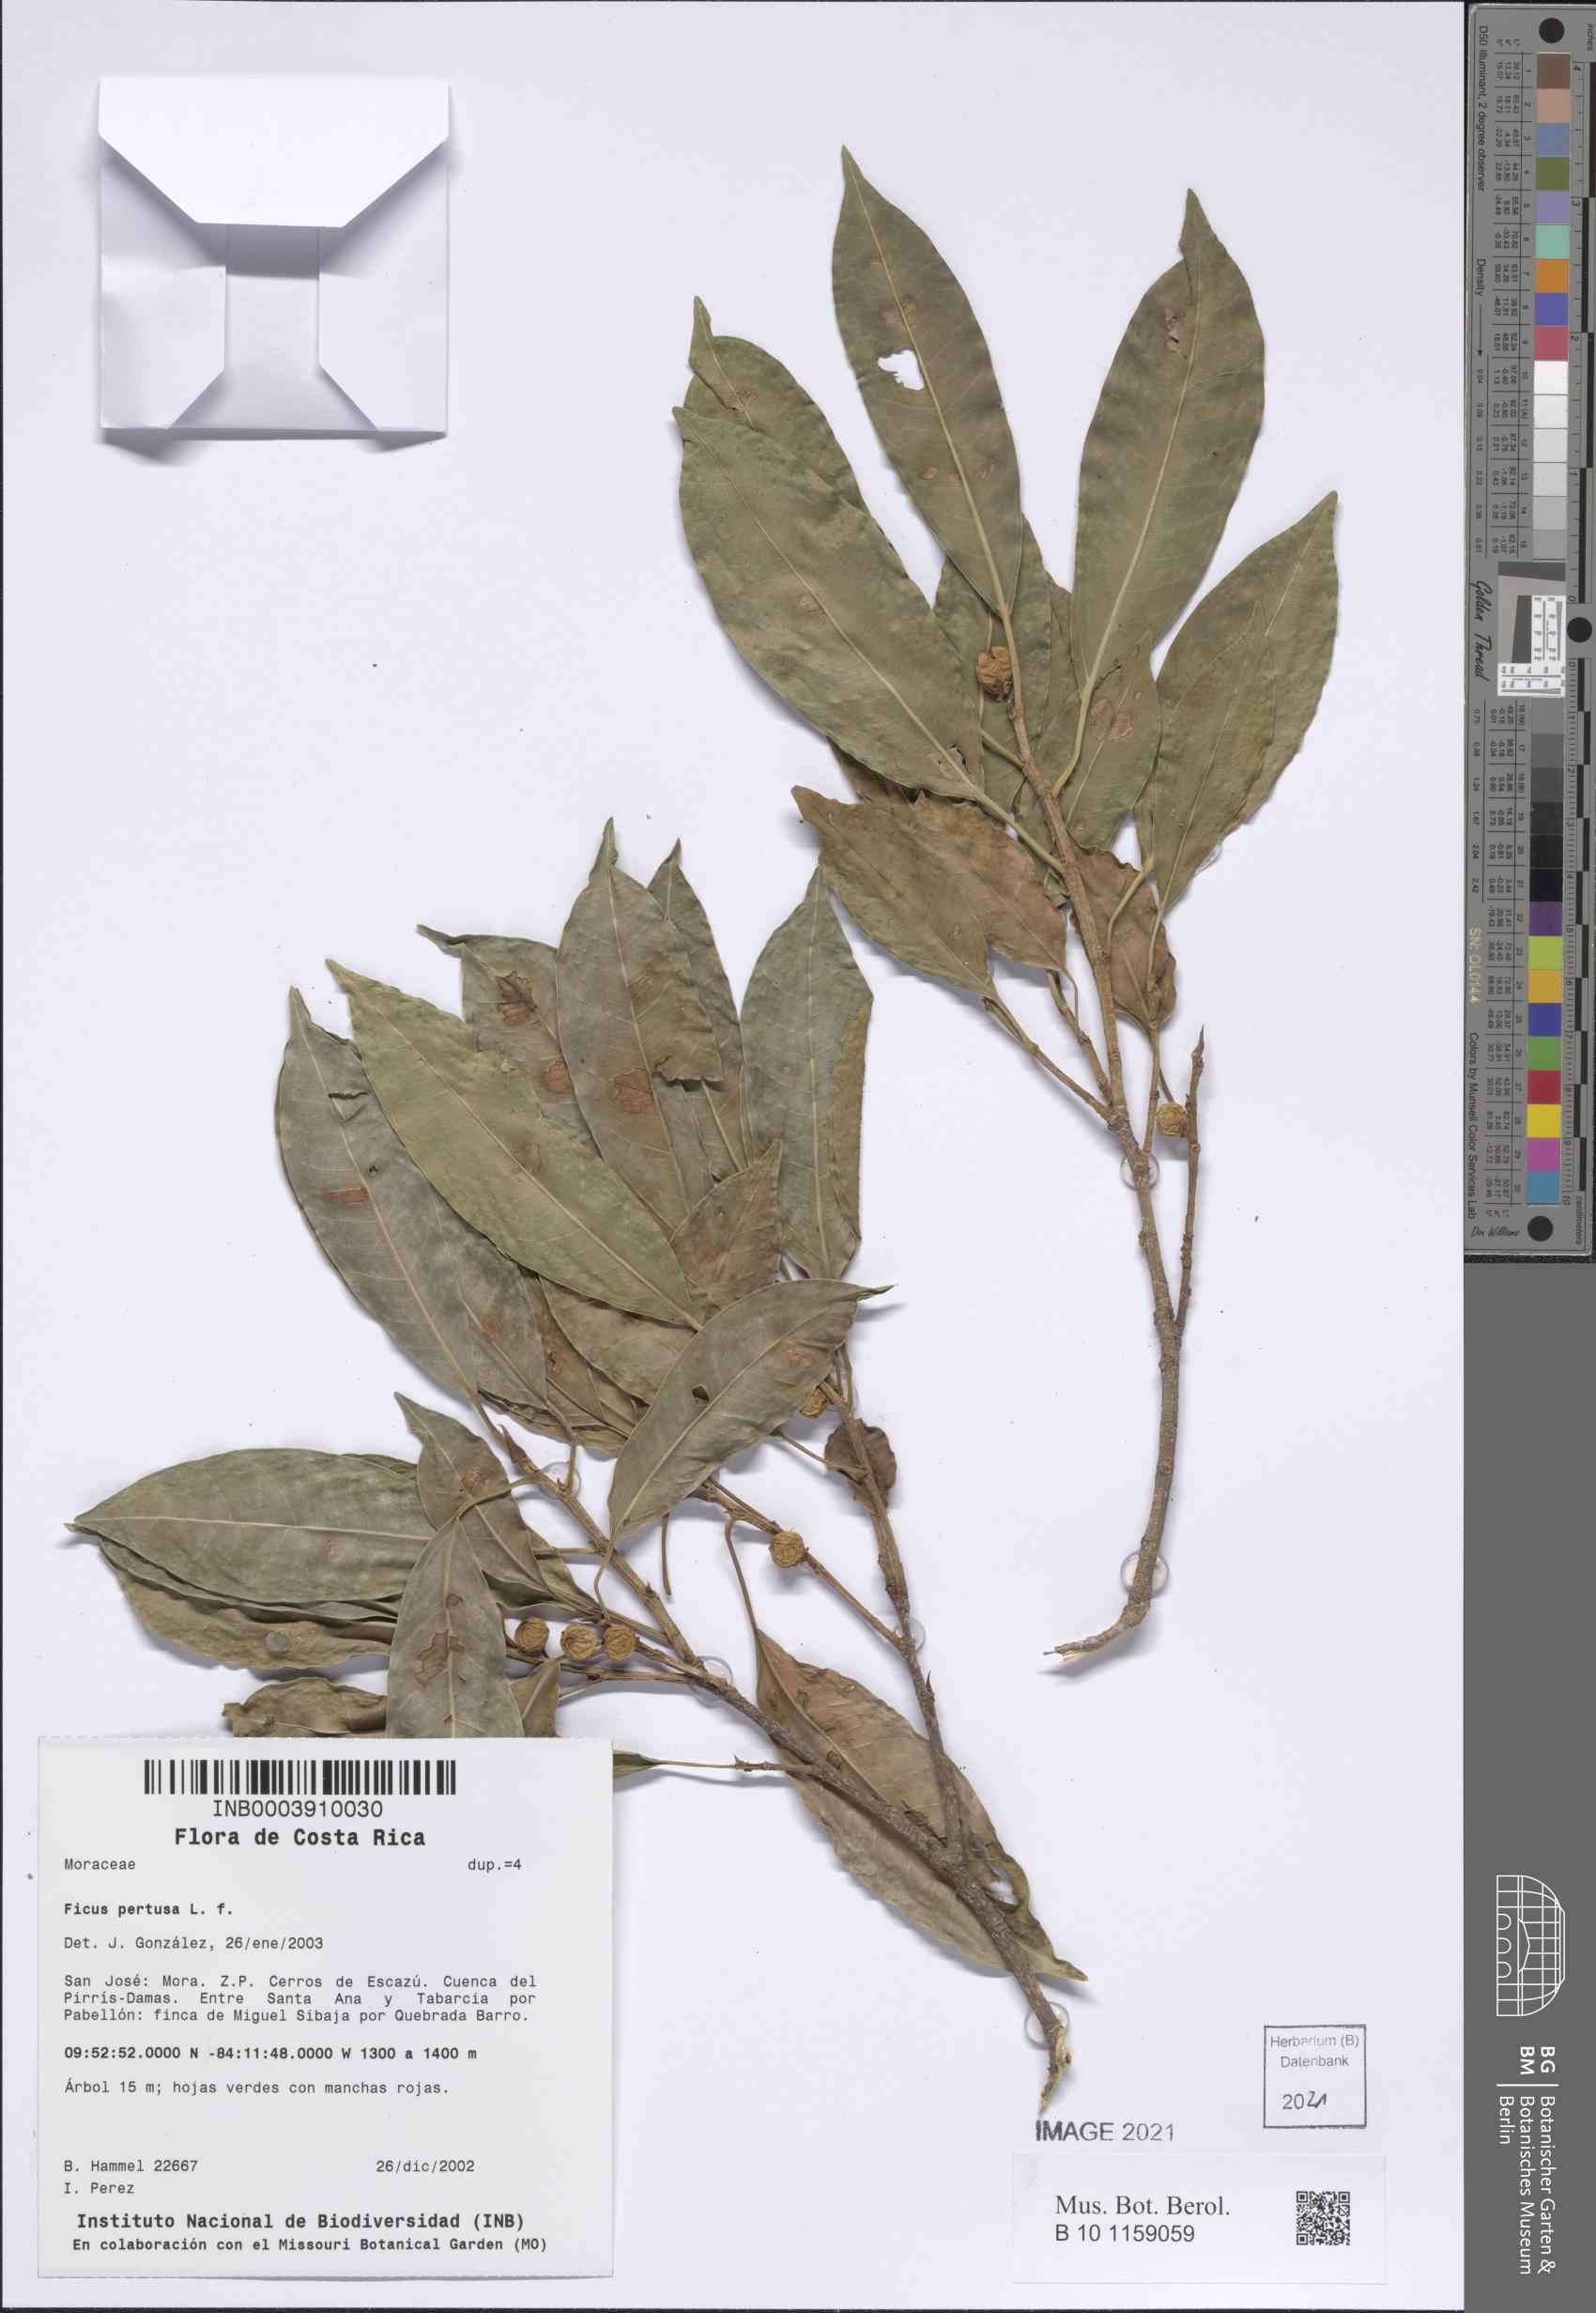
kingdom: Plantae
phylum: Tracheophyta
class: Magnoliopsida
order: Rosales
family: Moraceae
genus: Ficus
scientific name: Ficus pertusa
